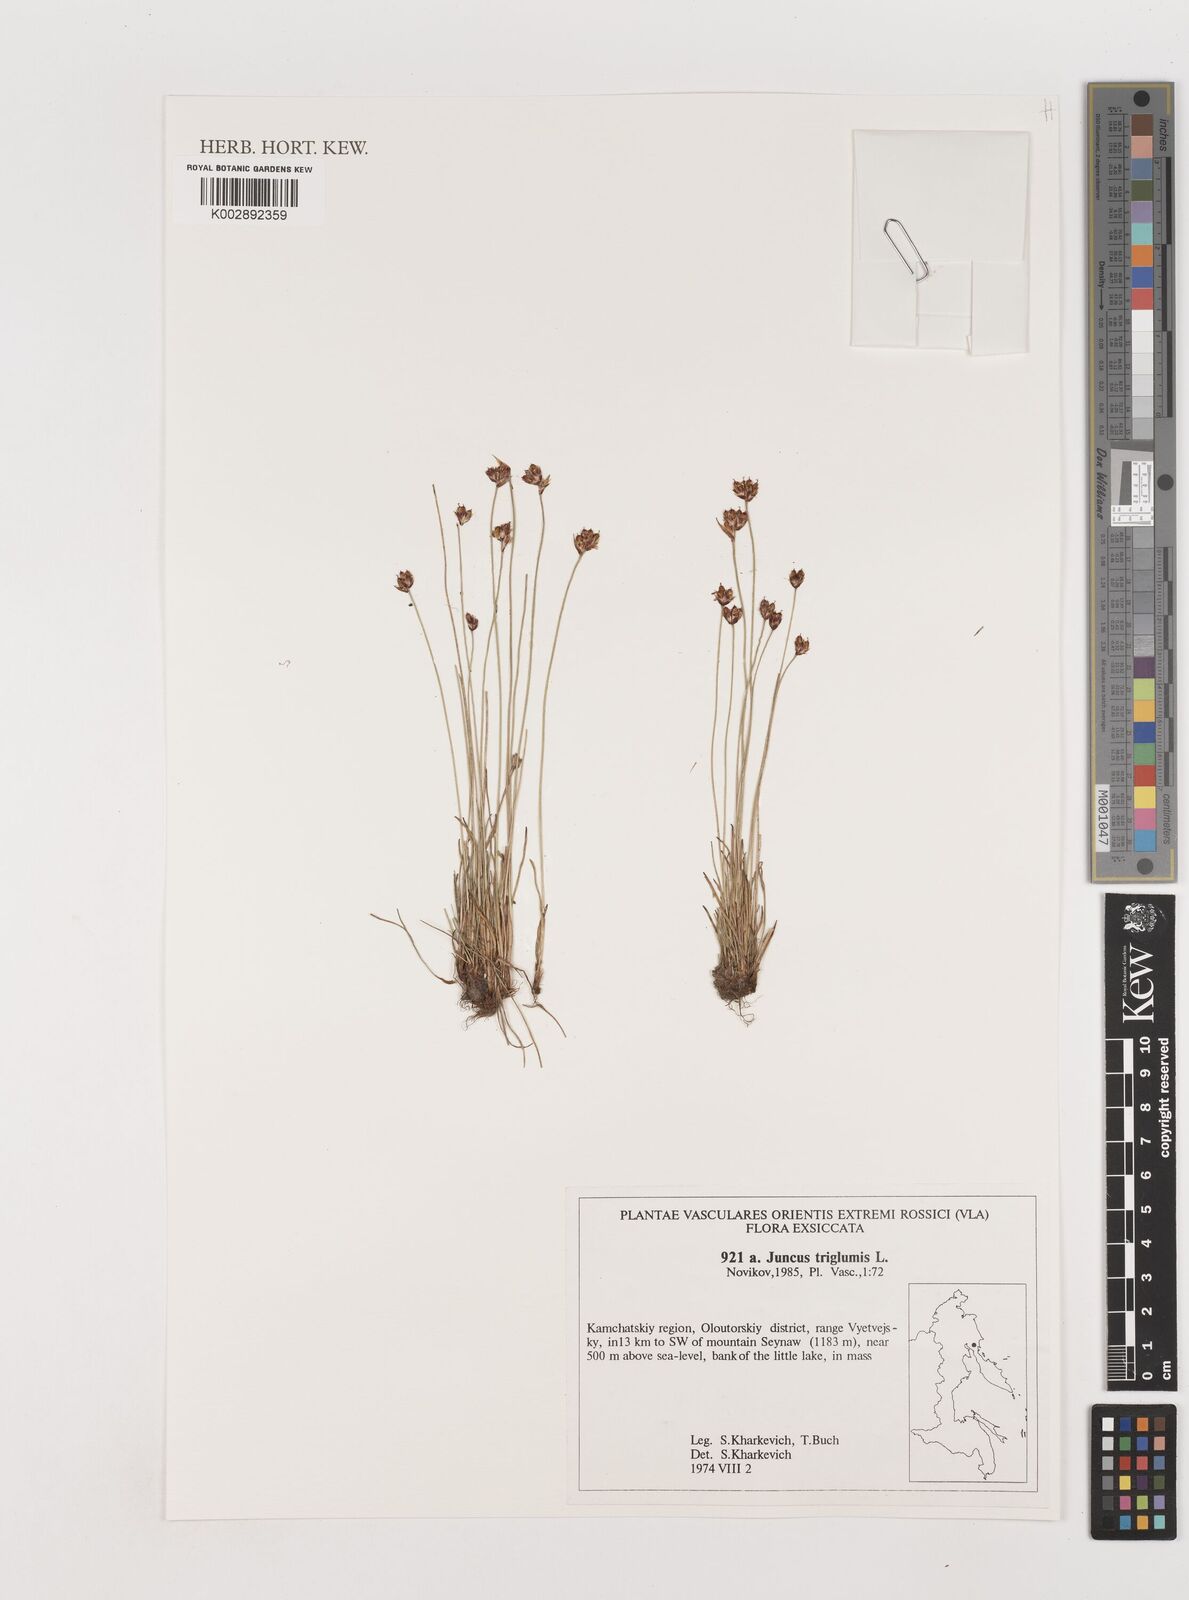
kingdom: Plantae
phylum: Tracheophyta
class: Liliopsida
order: Poales
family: Juncaceae
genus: Juncus
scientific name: Juncus triglumis
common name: Three-flowered rush
